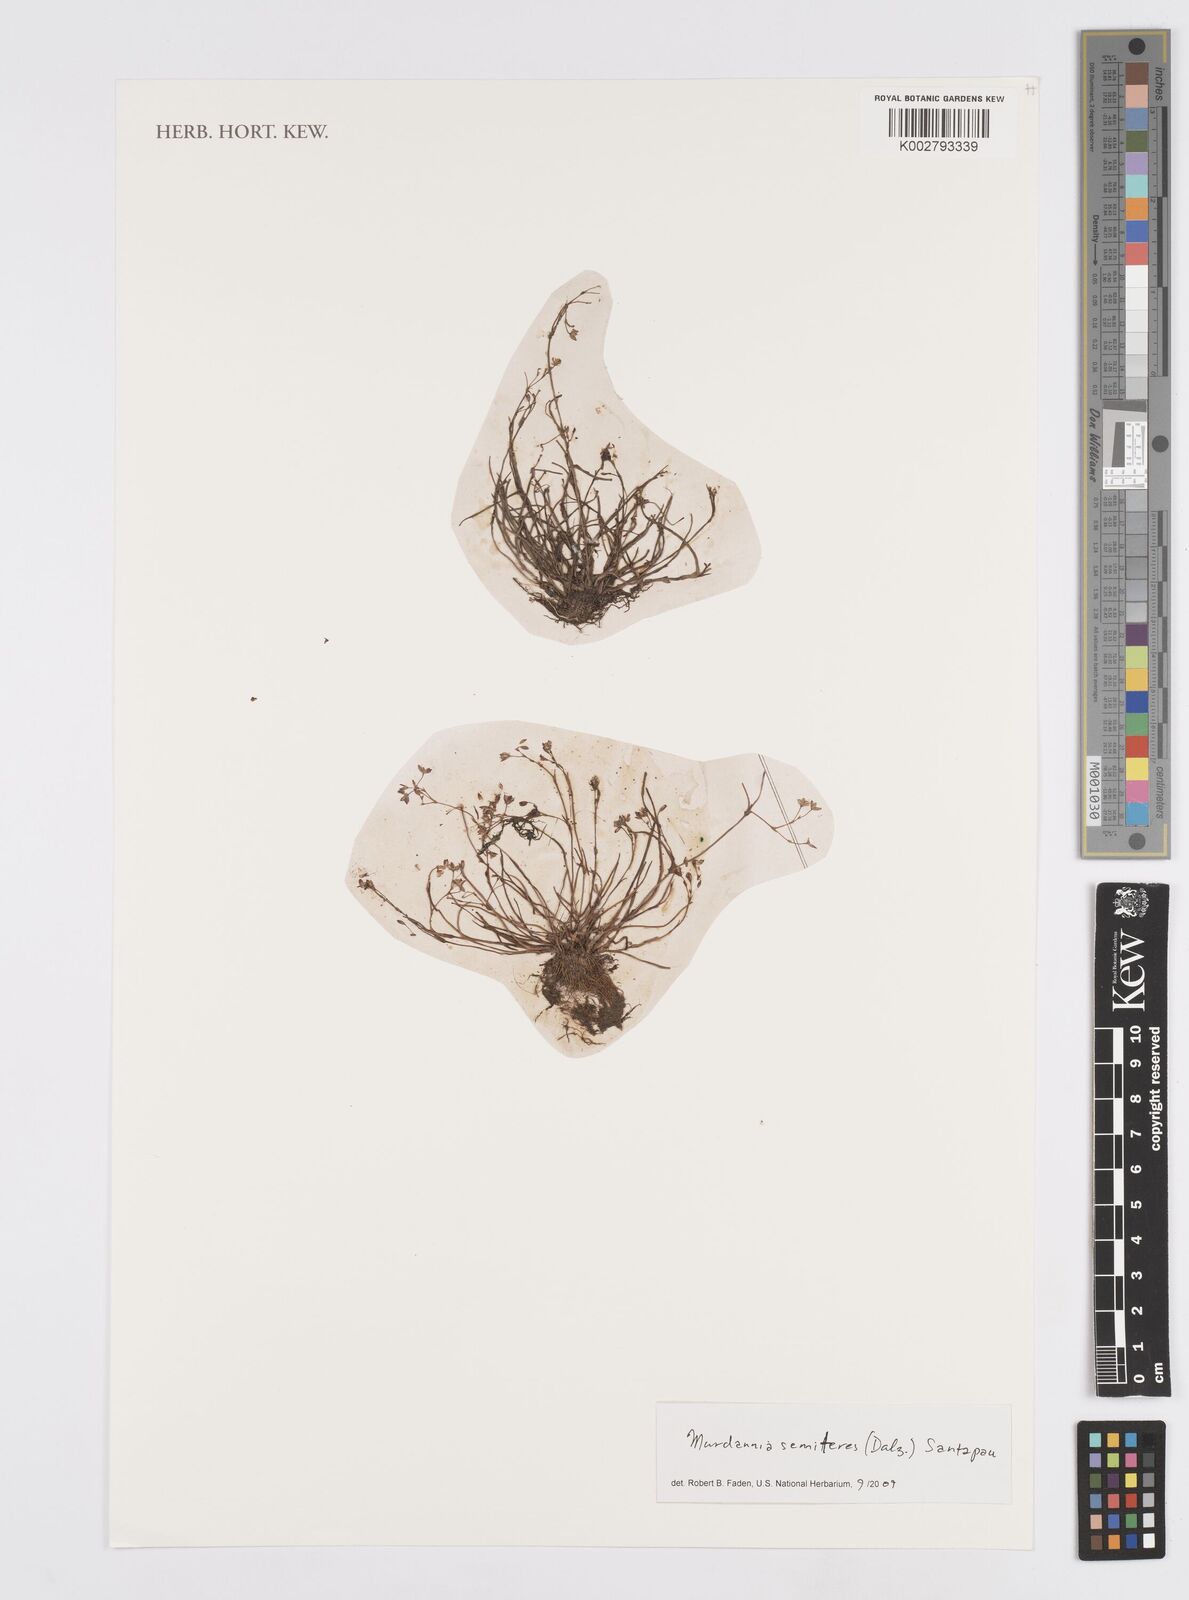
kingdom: Plantae
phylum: Tracheophyta
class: Liliopsida
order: Commelinales
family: Commelinaceae
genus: Murdannia
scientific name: Murdannia semiteres
